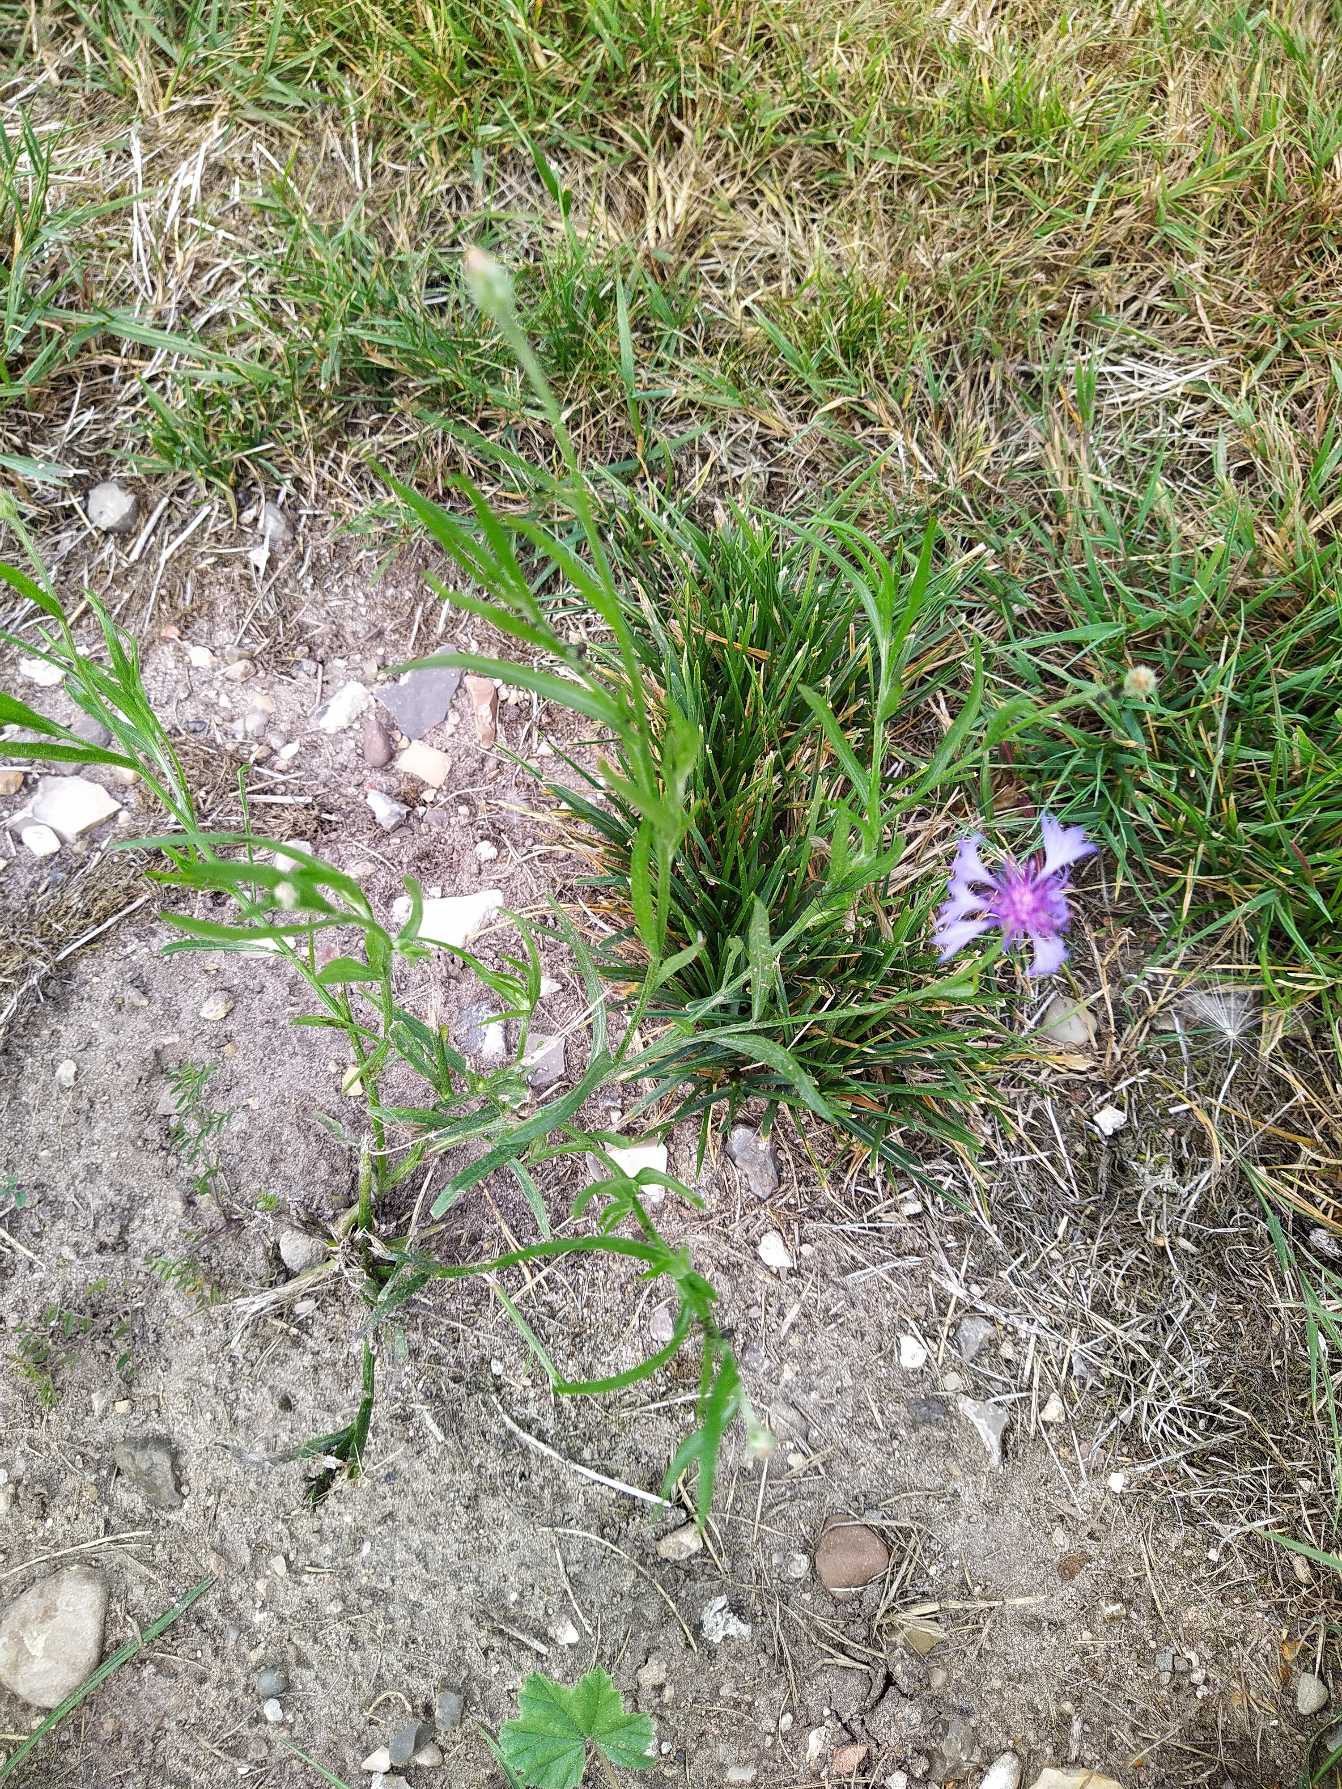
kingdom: Plantae
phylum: Tracheophyta
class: Magnoliopsida
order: Asterales
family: Asteraceae
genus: Centaurea
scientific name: Centaurea cyanus
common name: Kornblomst
